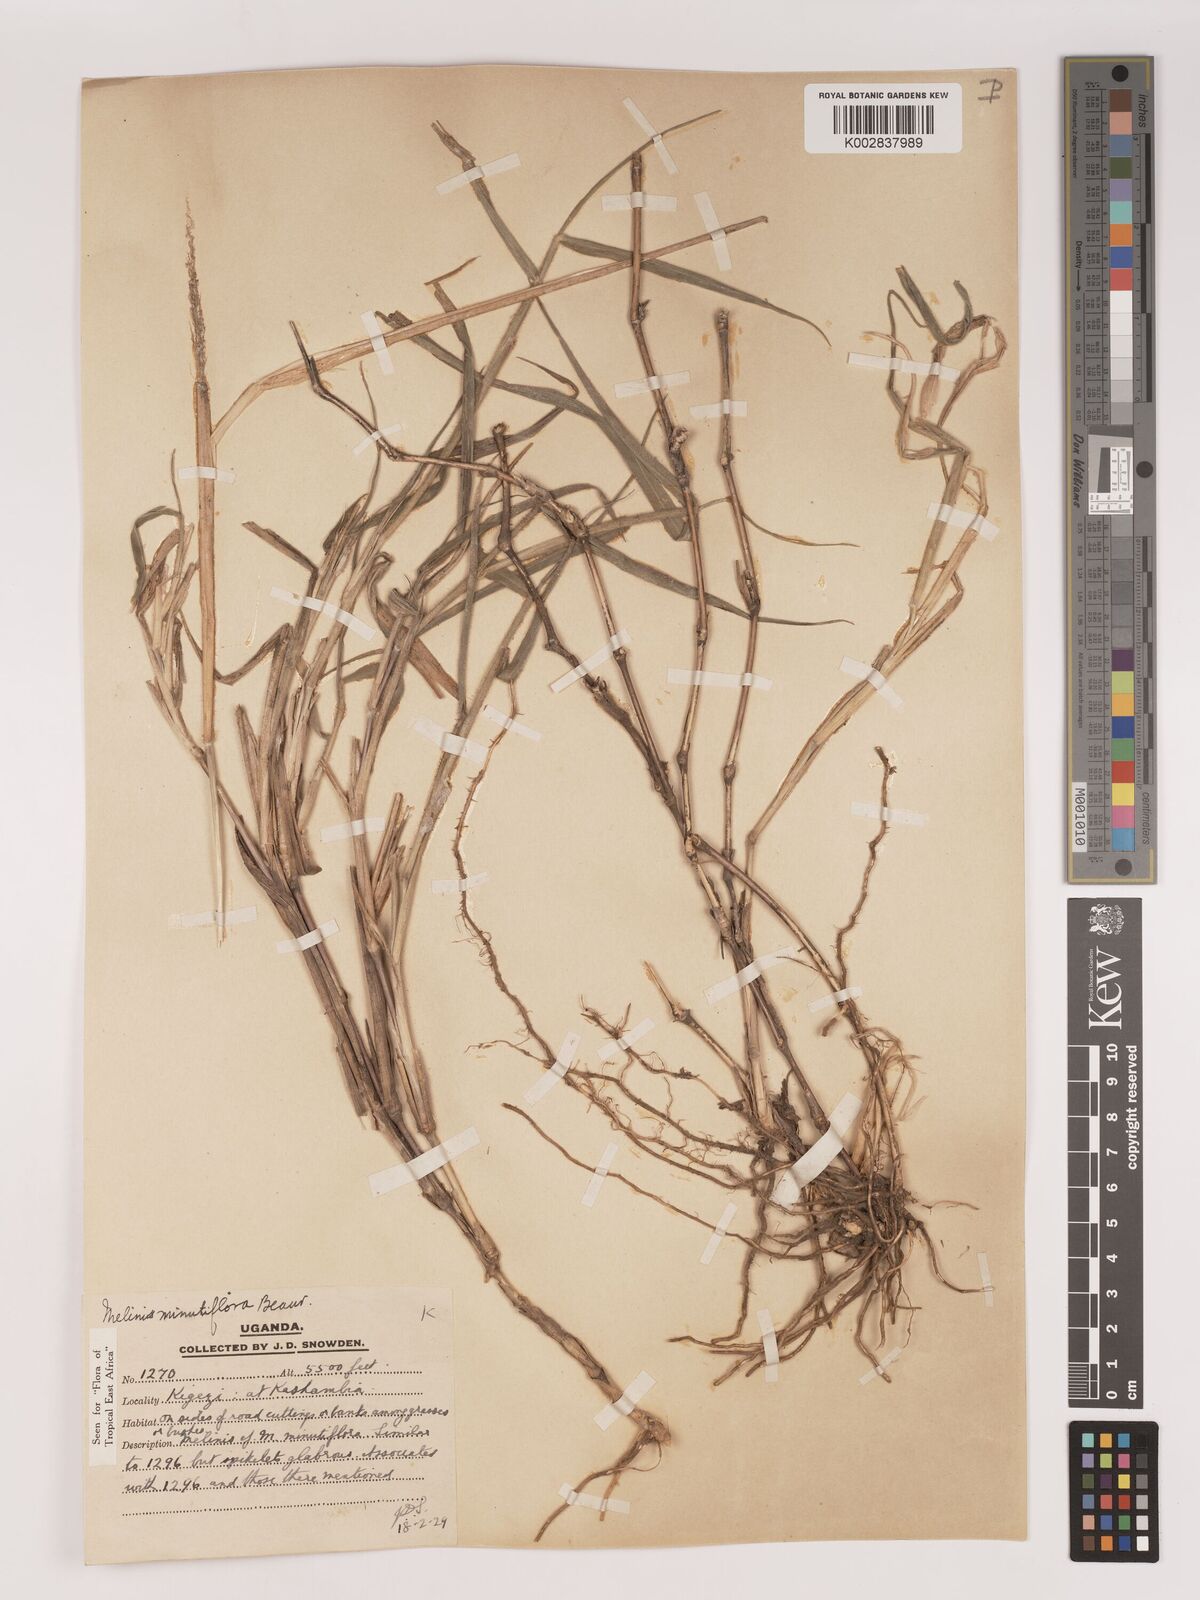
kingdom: Plantae
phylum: Tracheophyta
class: Liliopsida
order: Poales
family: Poaceae
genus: Melinis
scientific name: Melinis minutiflora
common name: Molassesgrass
